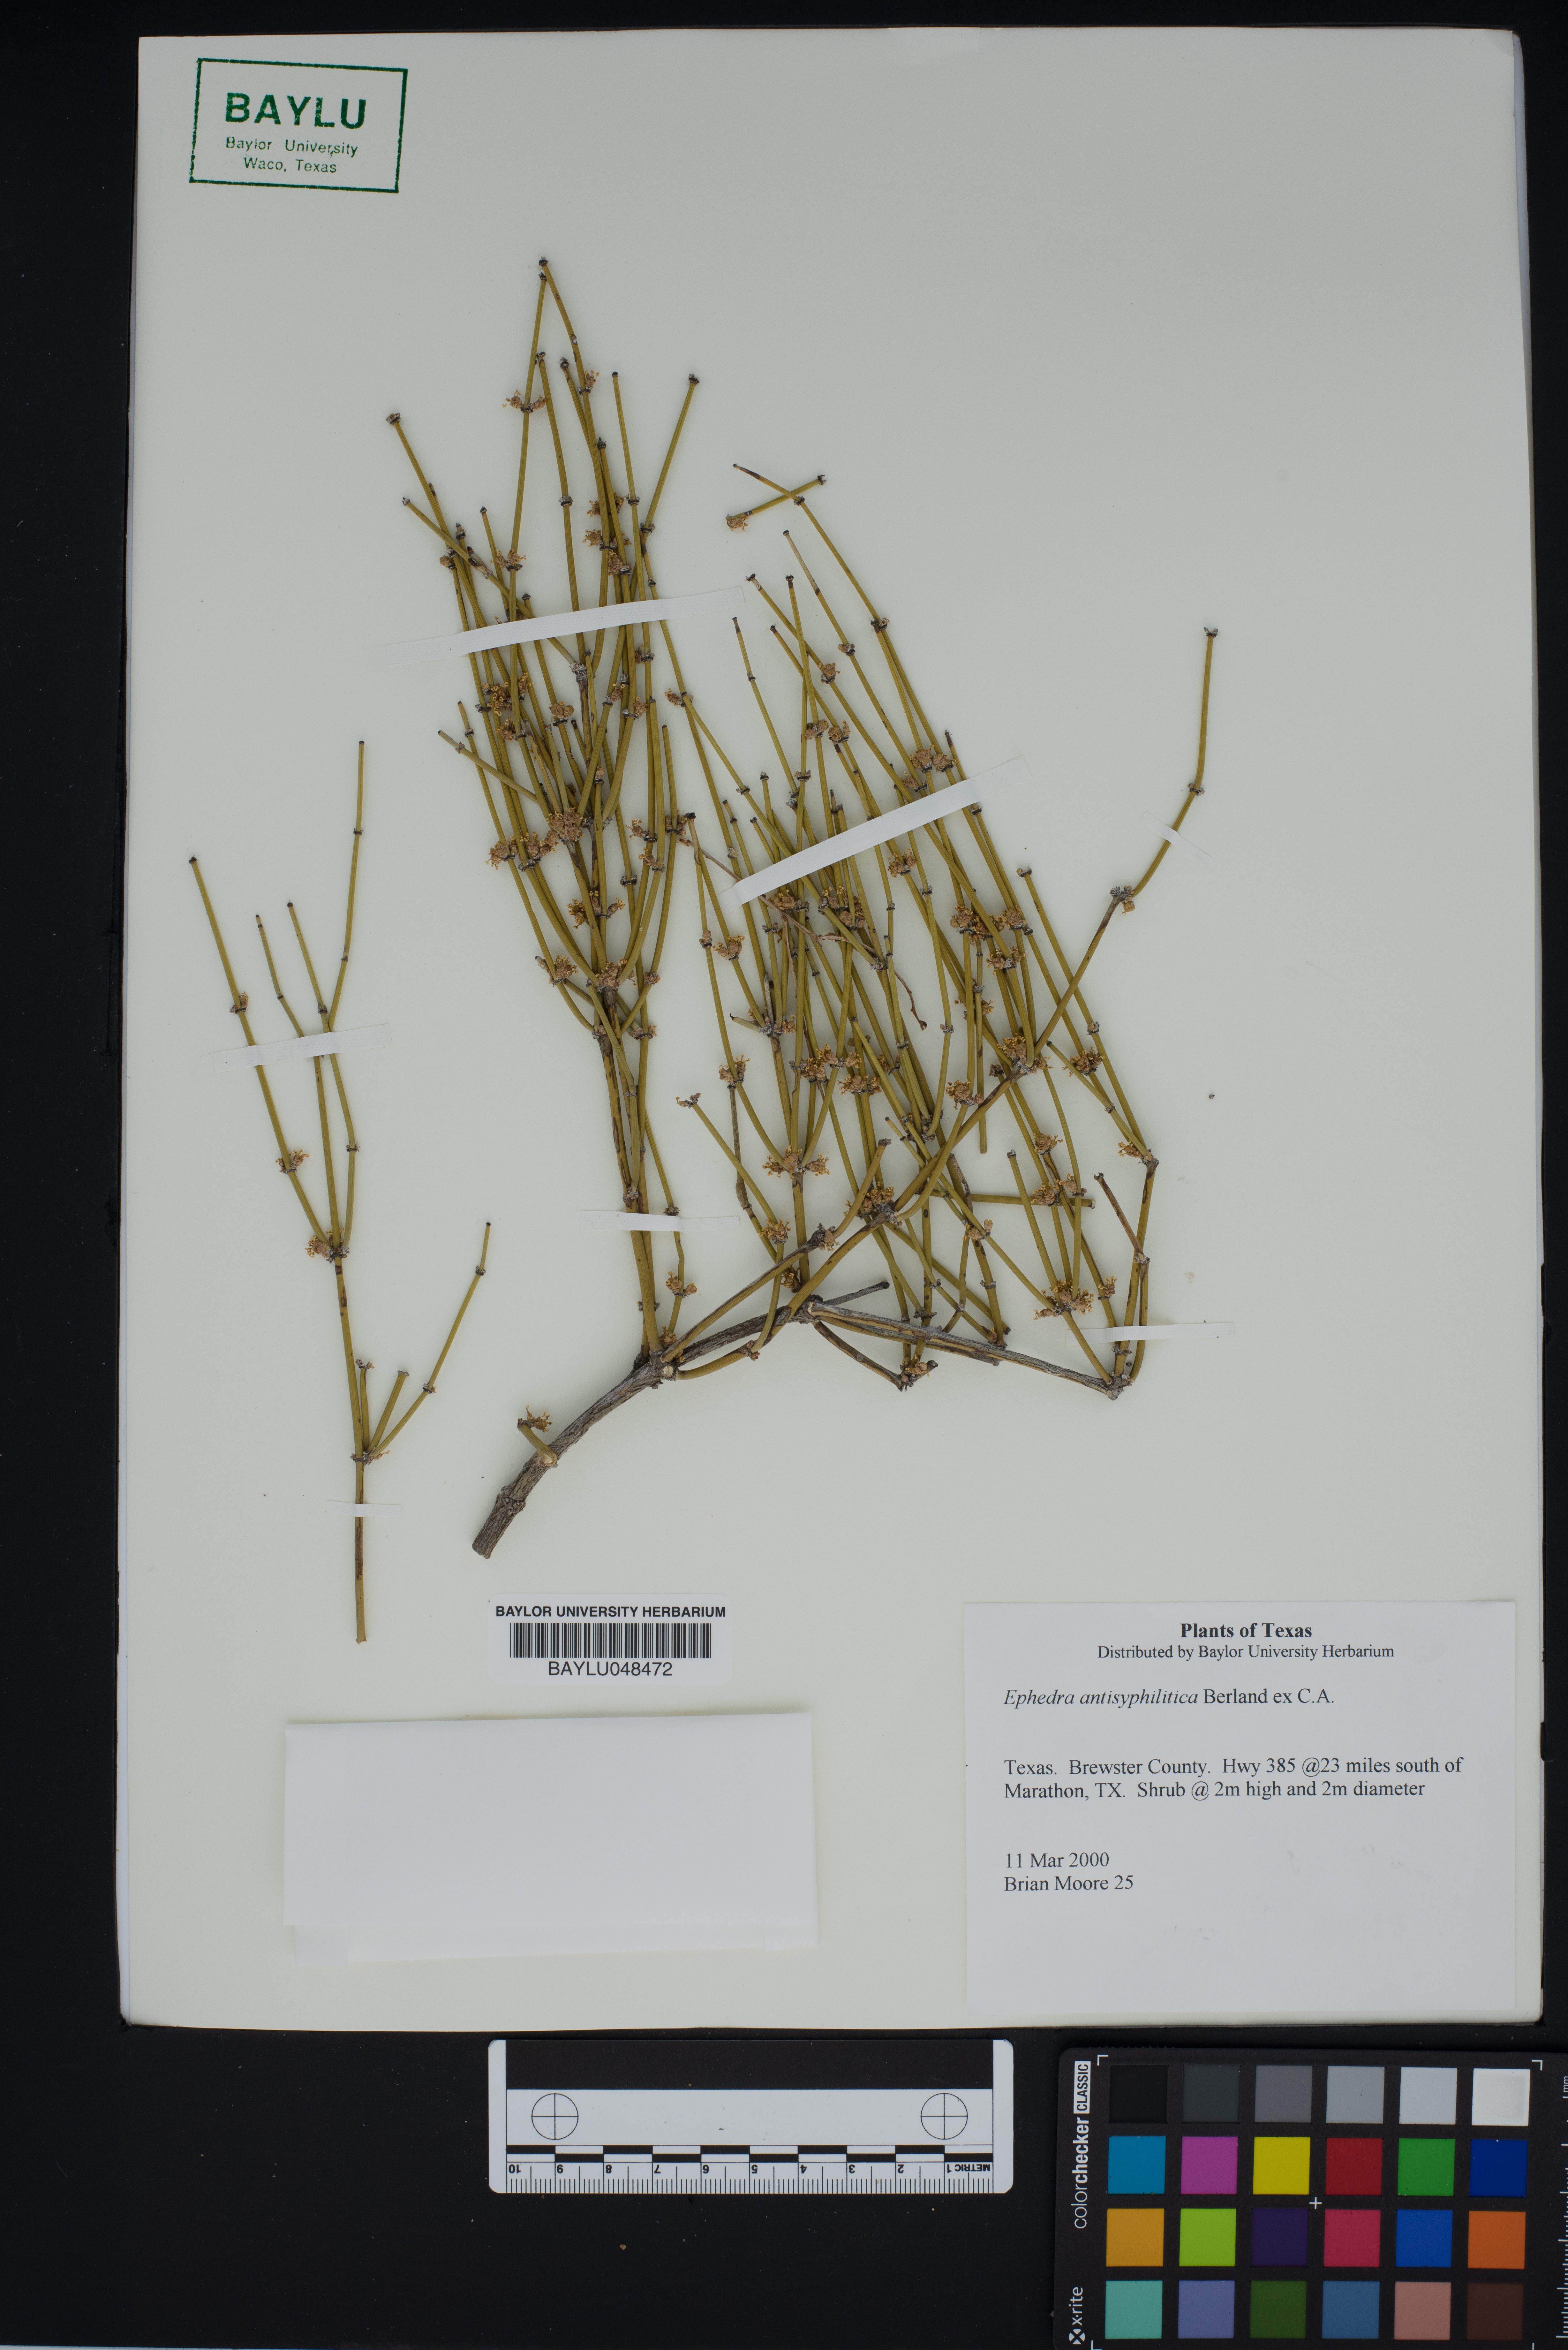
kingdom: Plantae
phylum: Tracheophyta
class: Gnetopsida
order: Ephedrales
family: Ephedraceae
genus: Ephedra
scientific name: Ephedra antisyphilitica
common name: Clipweed
